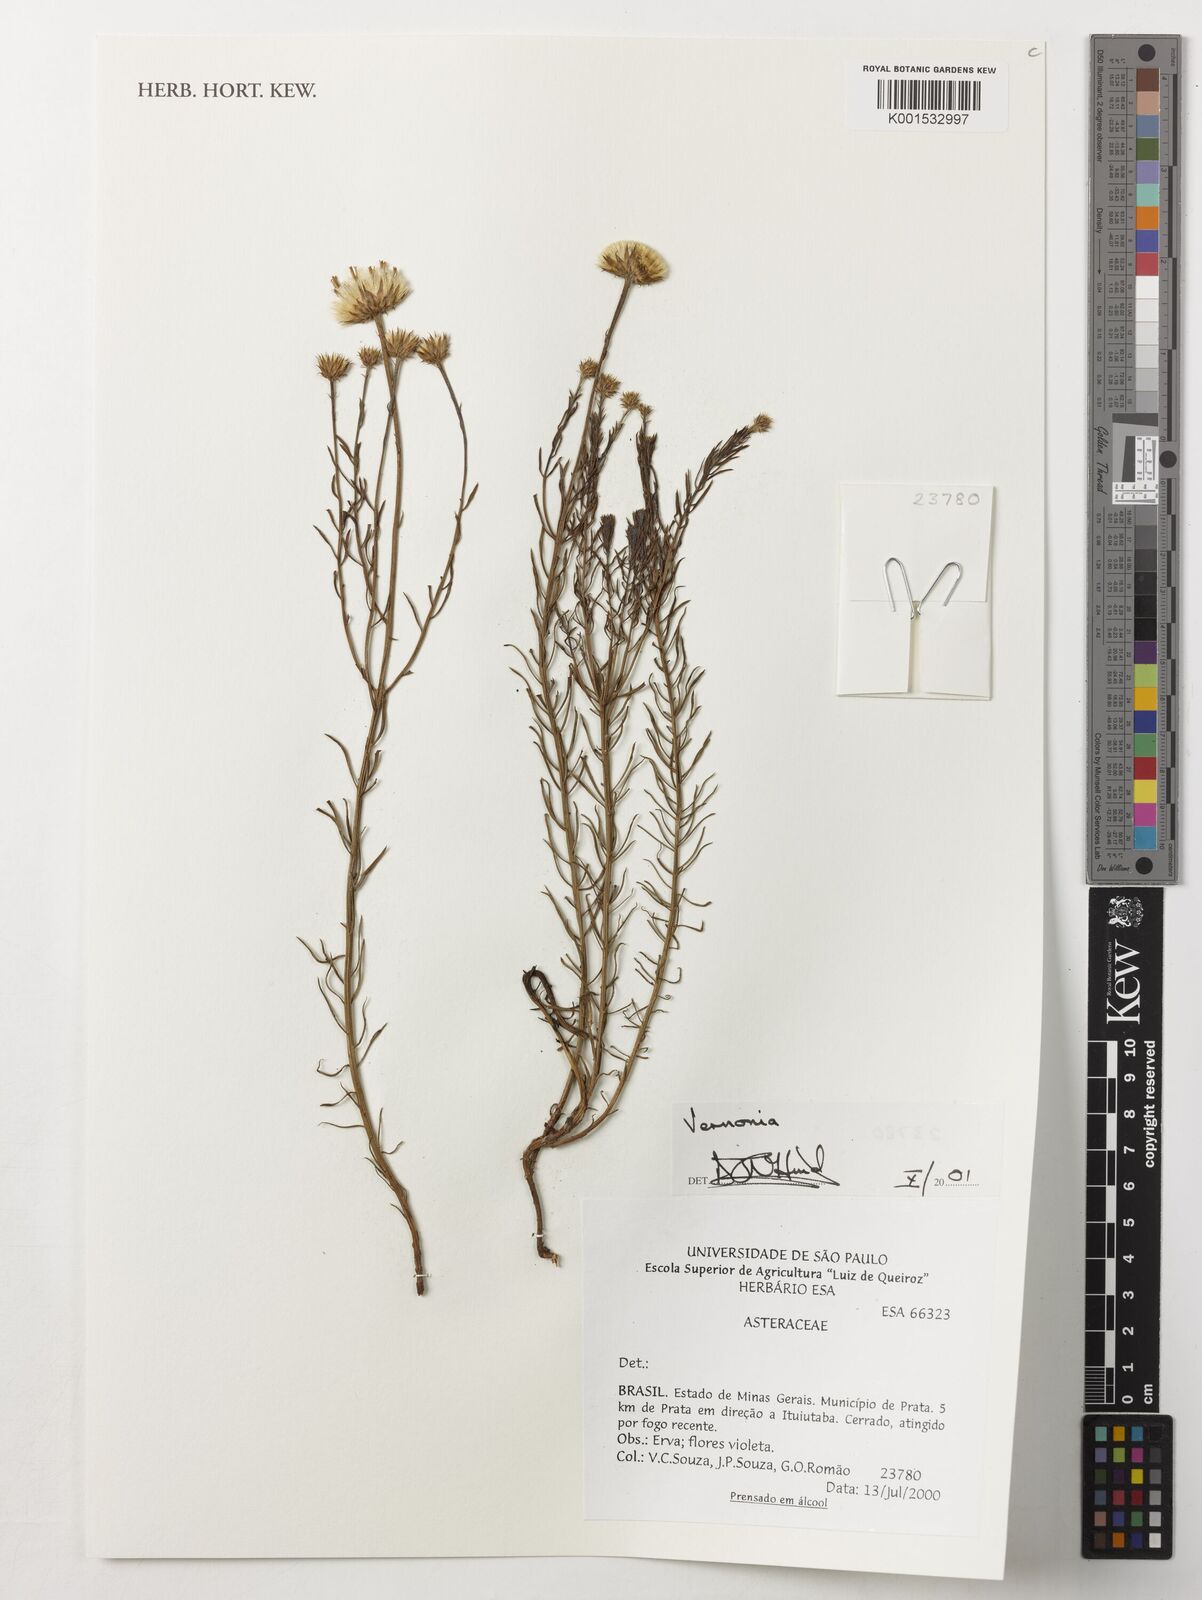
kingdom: Plantae
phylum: Tracheophyta
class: Magnoliopsida
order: Asterales
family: Asteraceae
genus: Vernonia
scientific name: Vernonia
